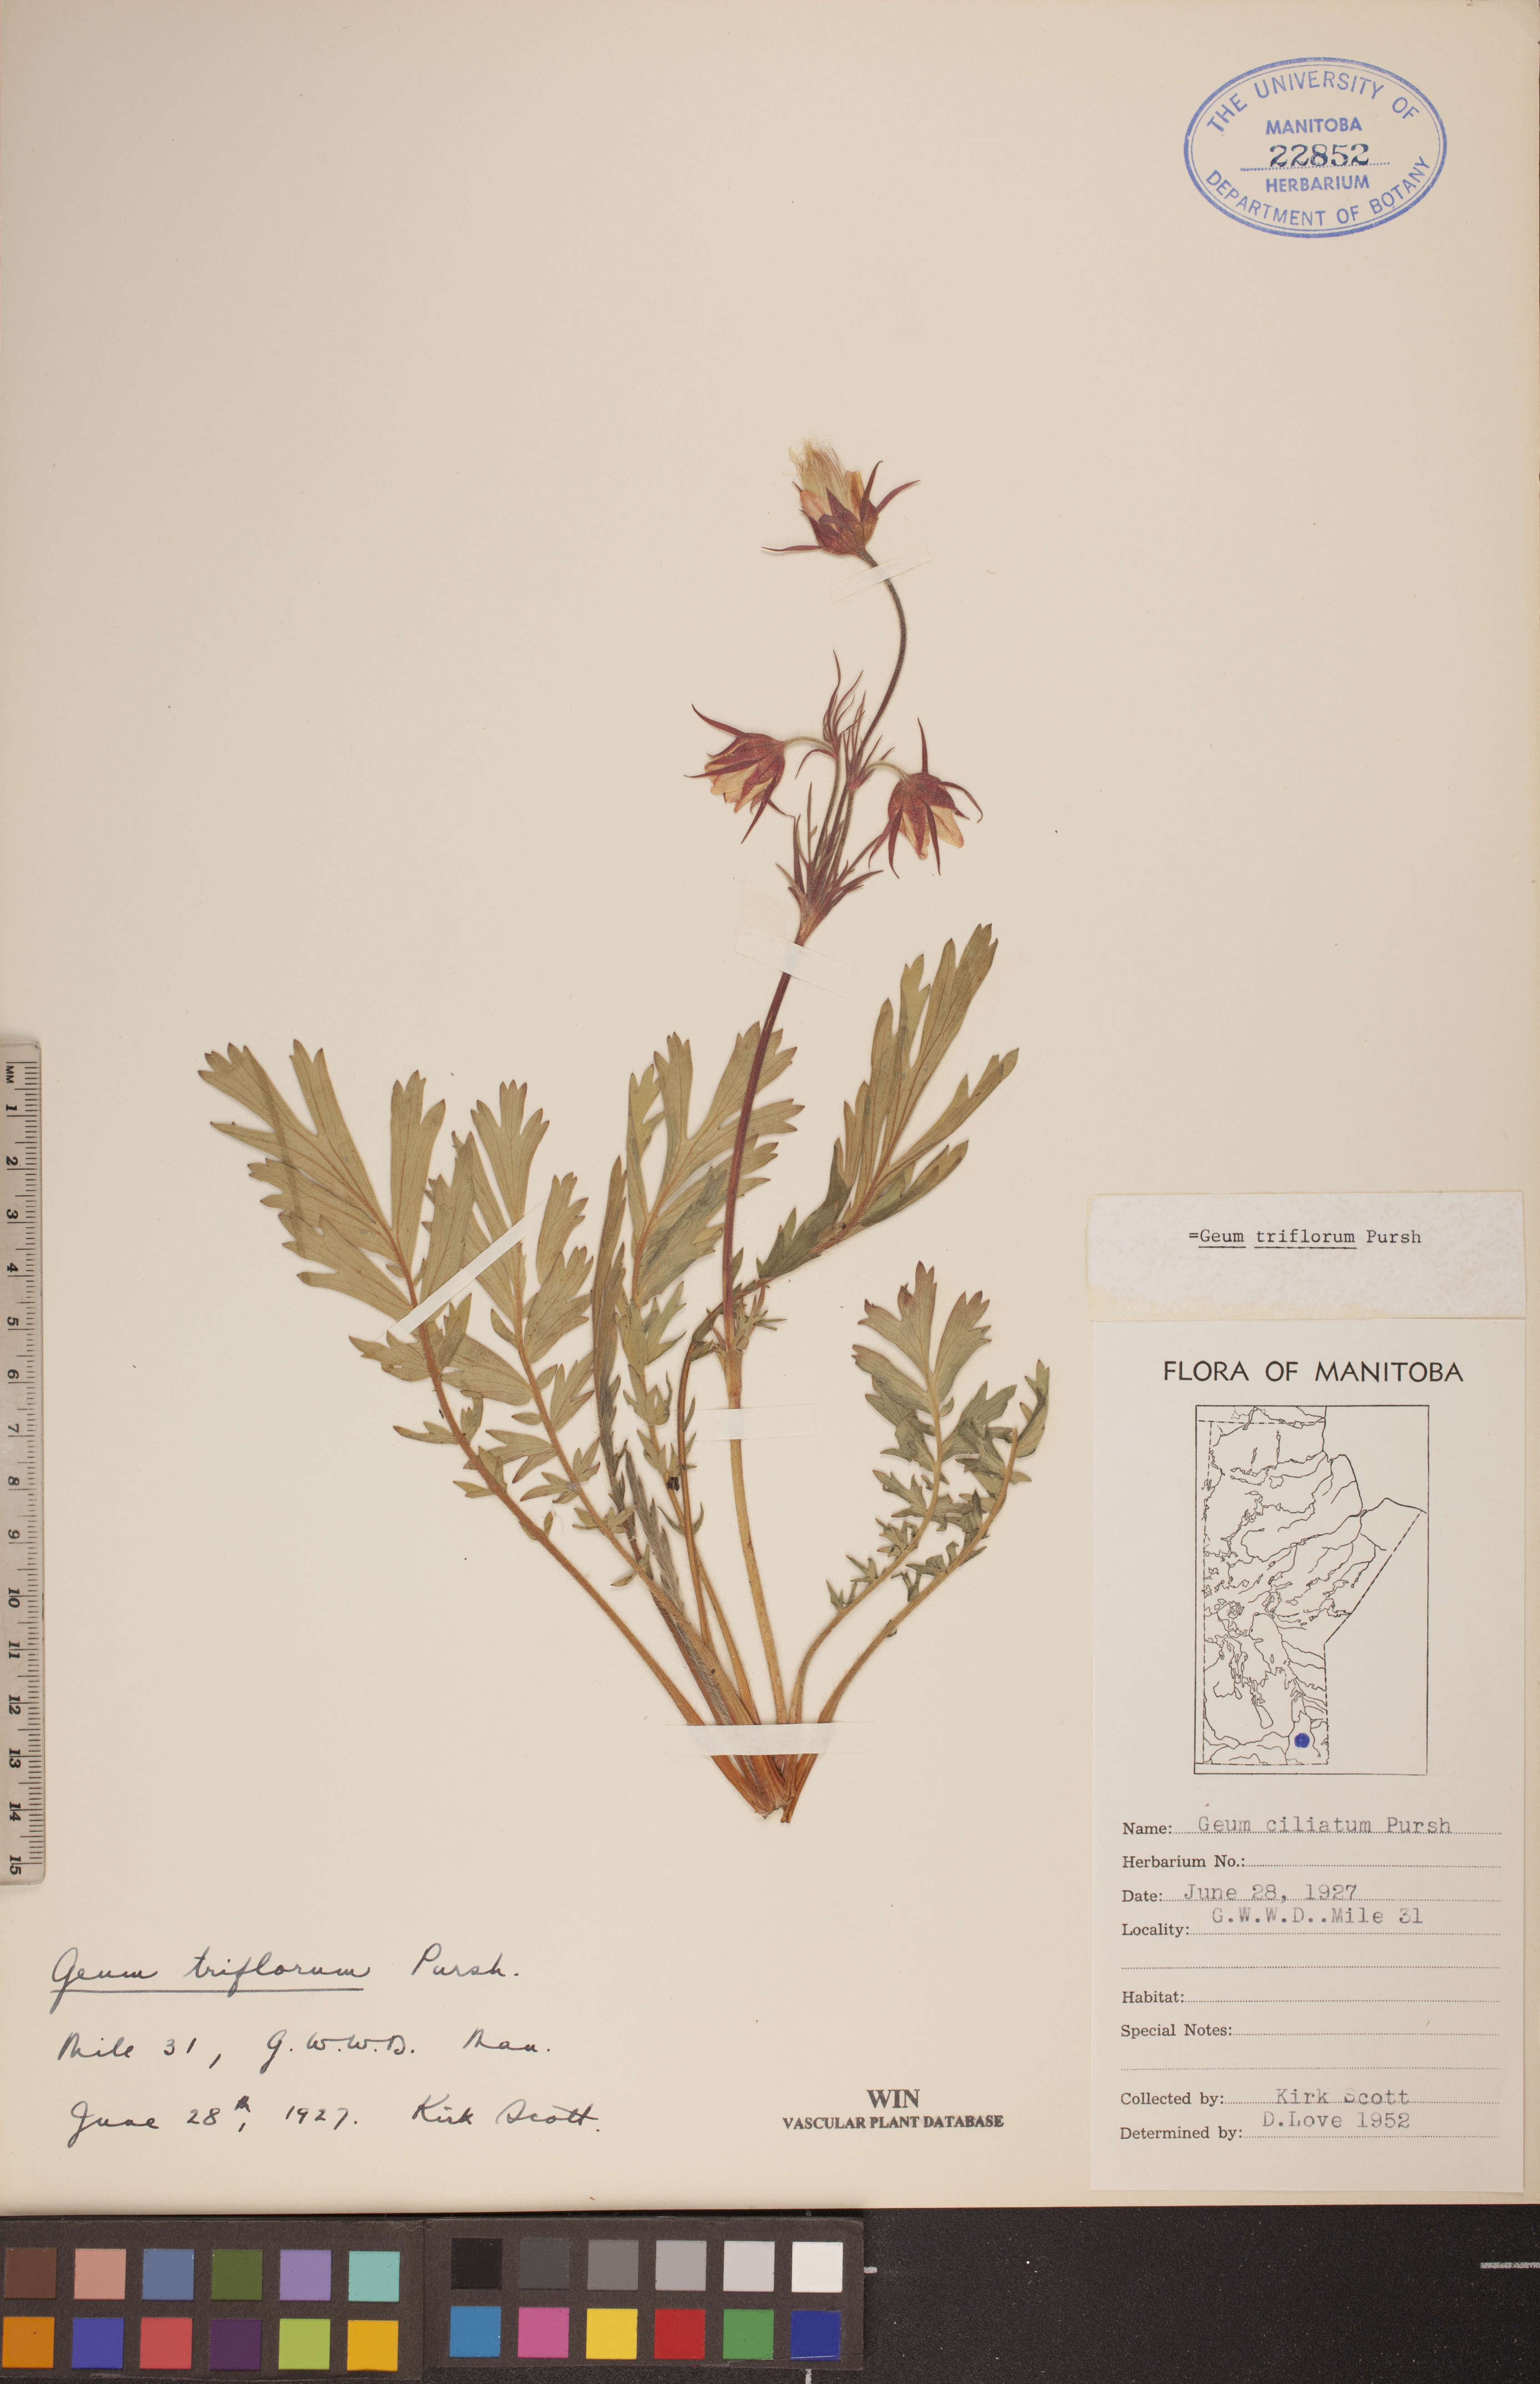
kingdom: Plantae
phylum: Tracheophyta
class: Magnoliopsida
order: Rosales
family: Rosaceae
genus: Geum
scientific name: Geum triflorum
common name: Old man's whiskers
